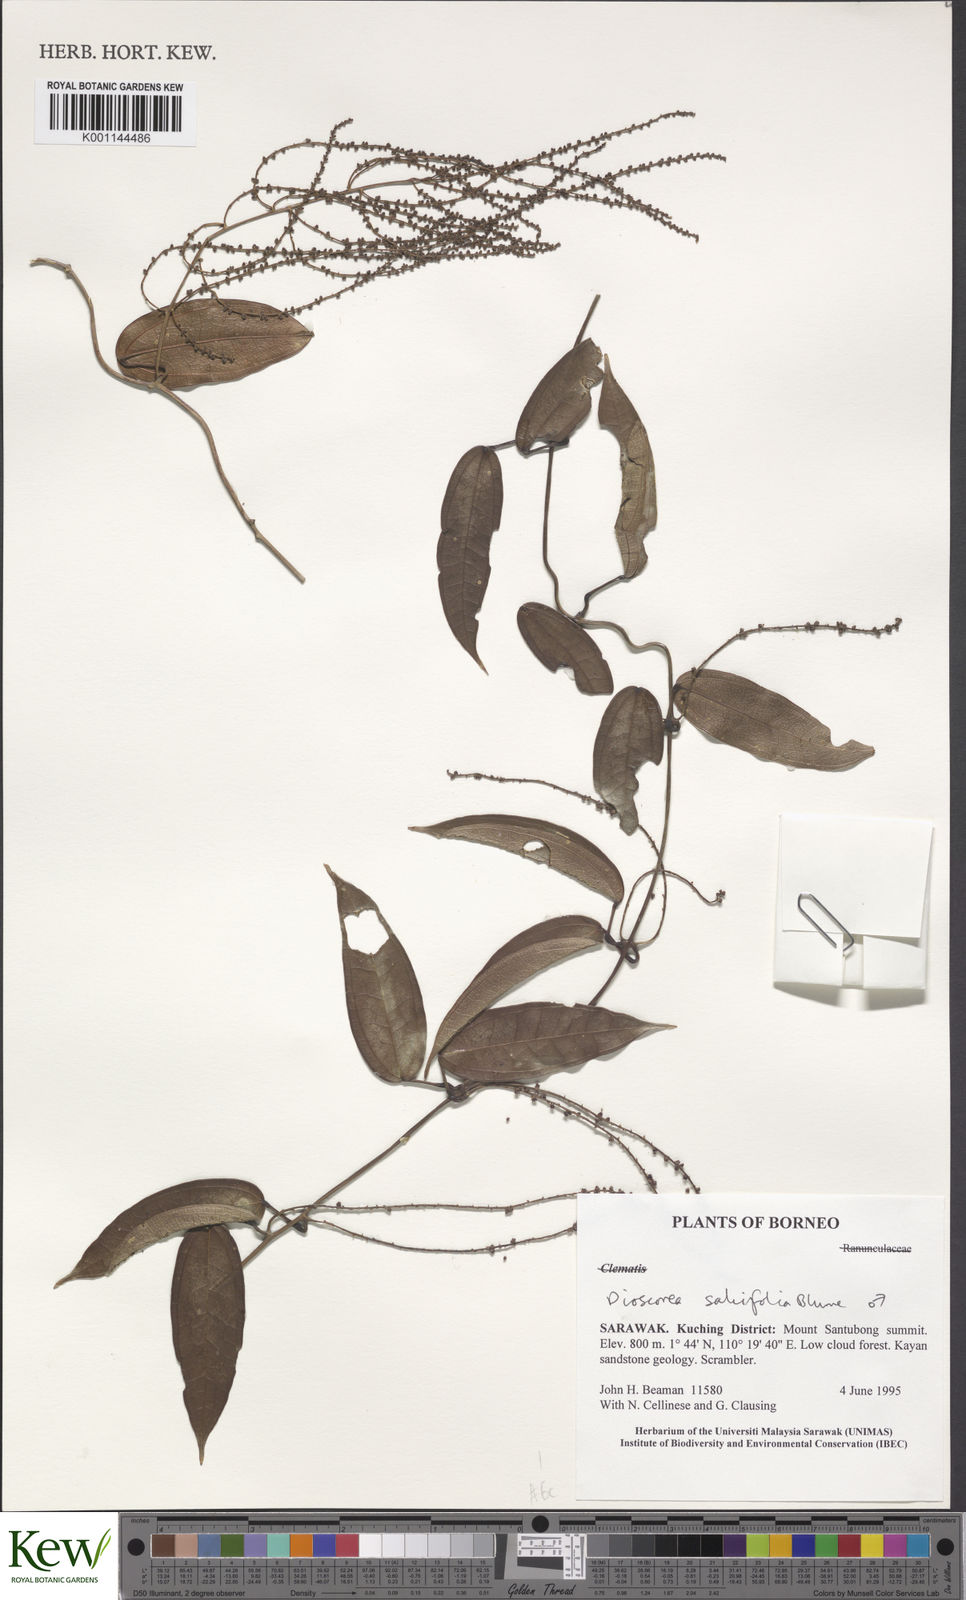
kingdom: Plantae
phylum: Tracheophyta
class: Liliopsida
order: Dioscoreales
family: Dioscoreaceae
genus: Dioscorea
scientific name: Dioscorea salicifolia
